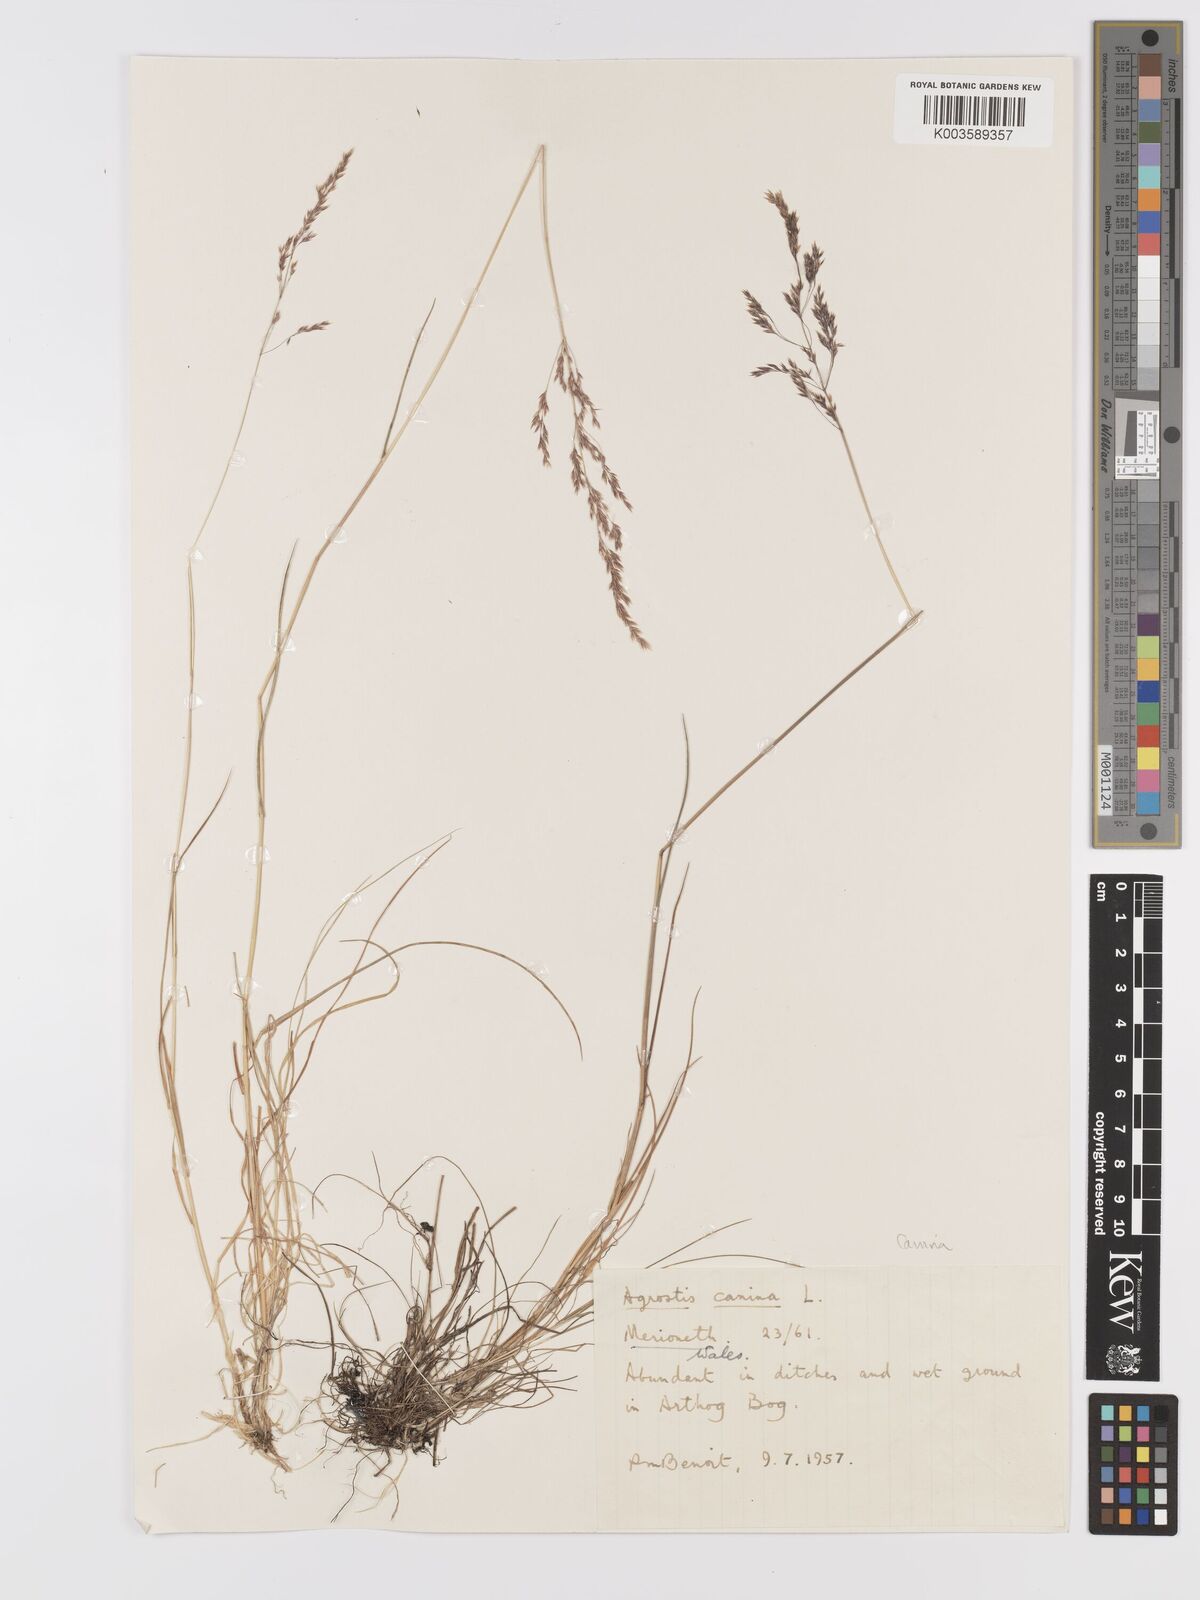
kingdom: Plantae
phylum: Tracheophyta
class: Liliopsida
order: Poales
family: Poaceae
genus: Agrostis
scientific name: Agrostis canina
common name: Velvet bent
